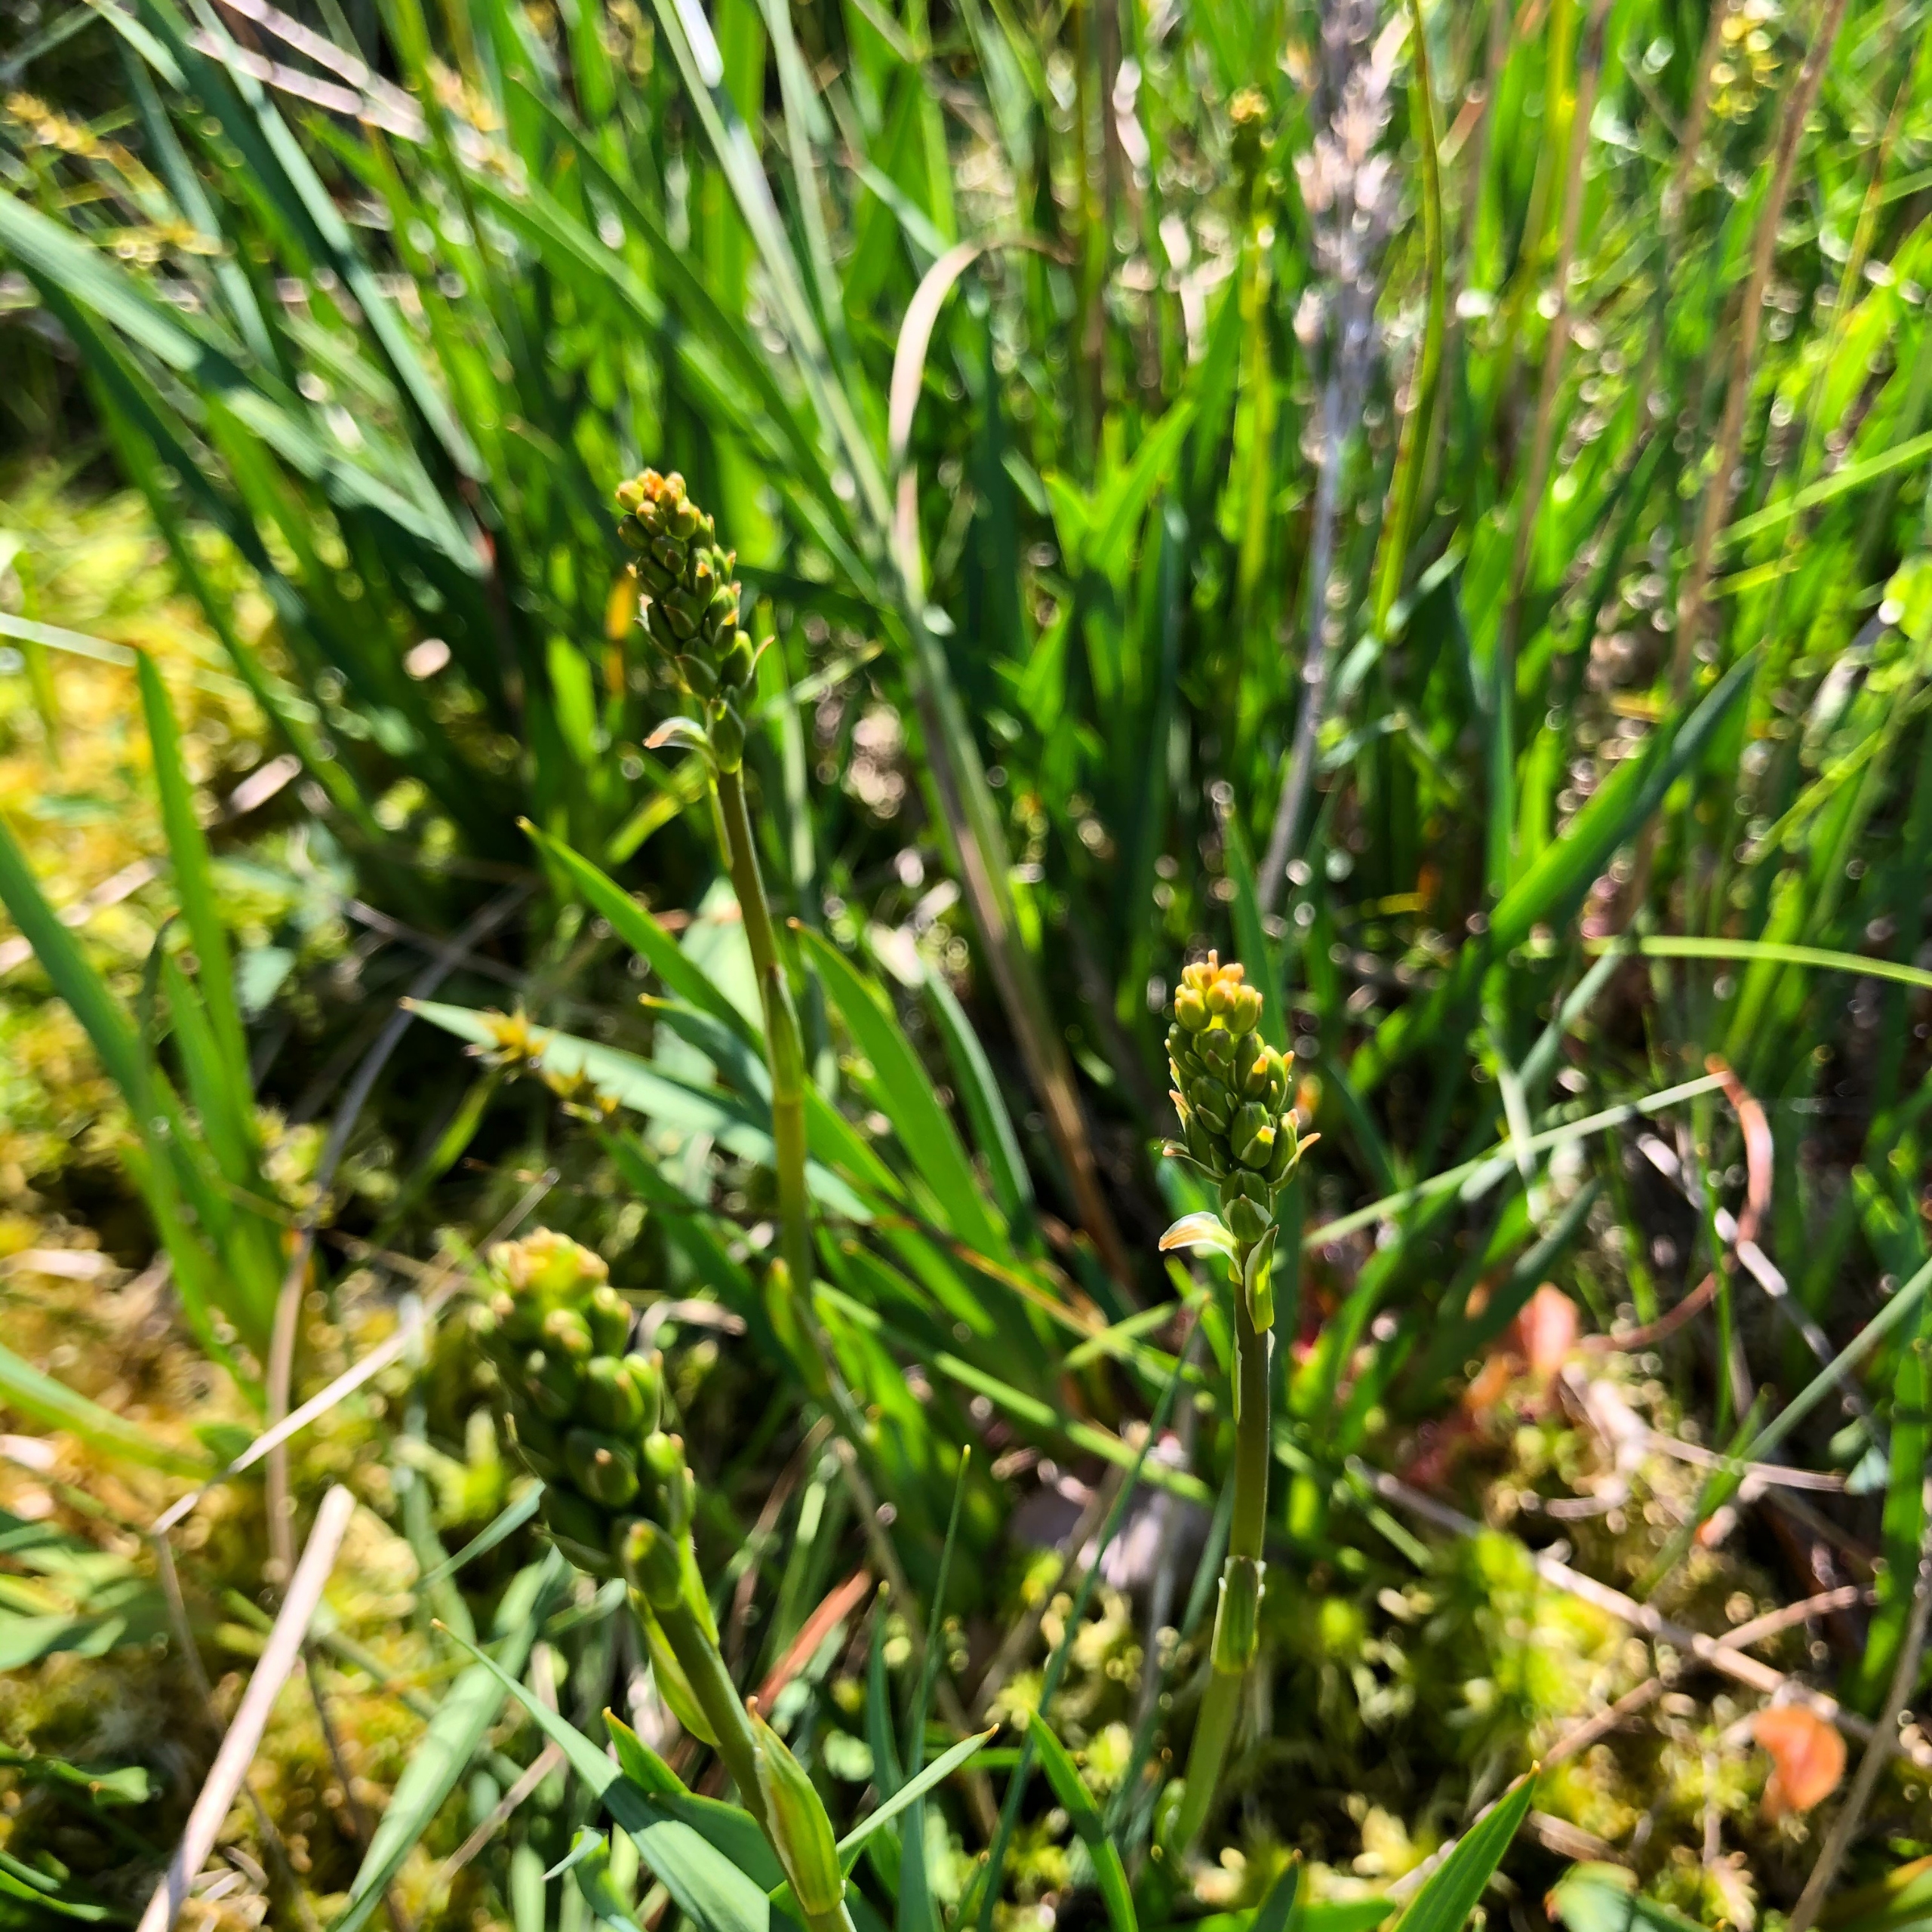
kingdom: Plantae
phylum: Tracheophyta
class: Liliopsida
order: Dioscoreales
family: Nartheciaceae
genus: Narthecium
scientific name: Narthecium ossifragum
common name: Benbræk
